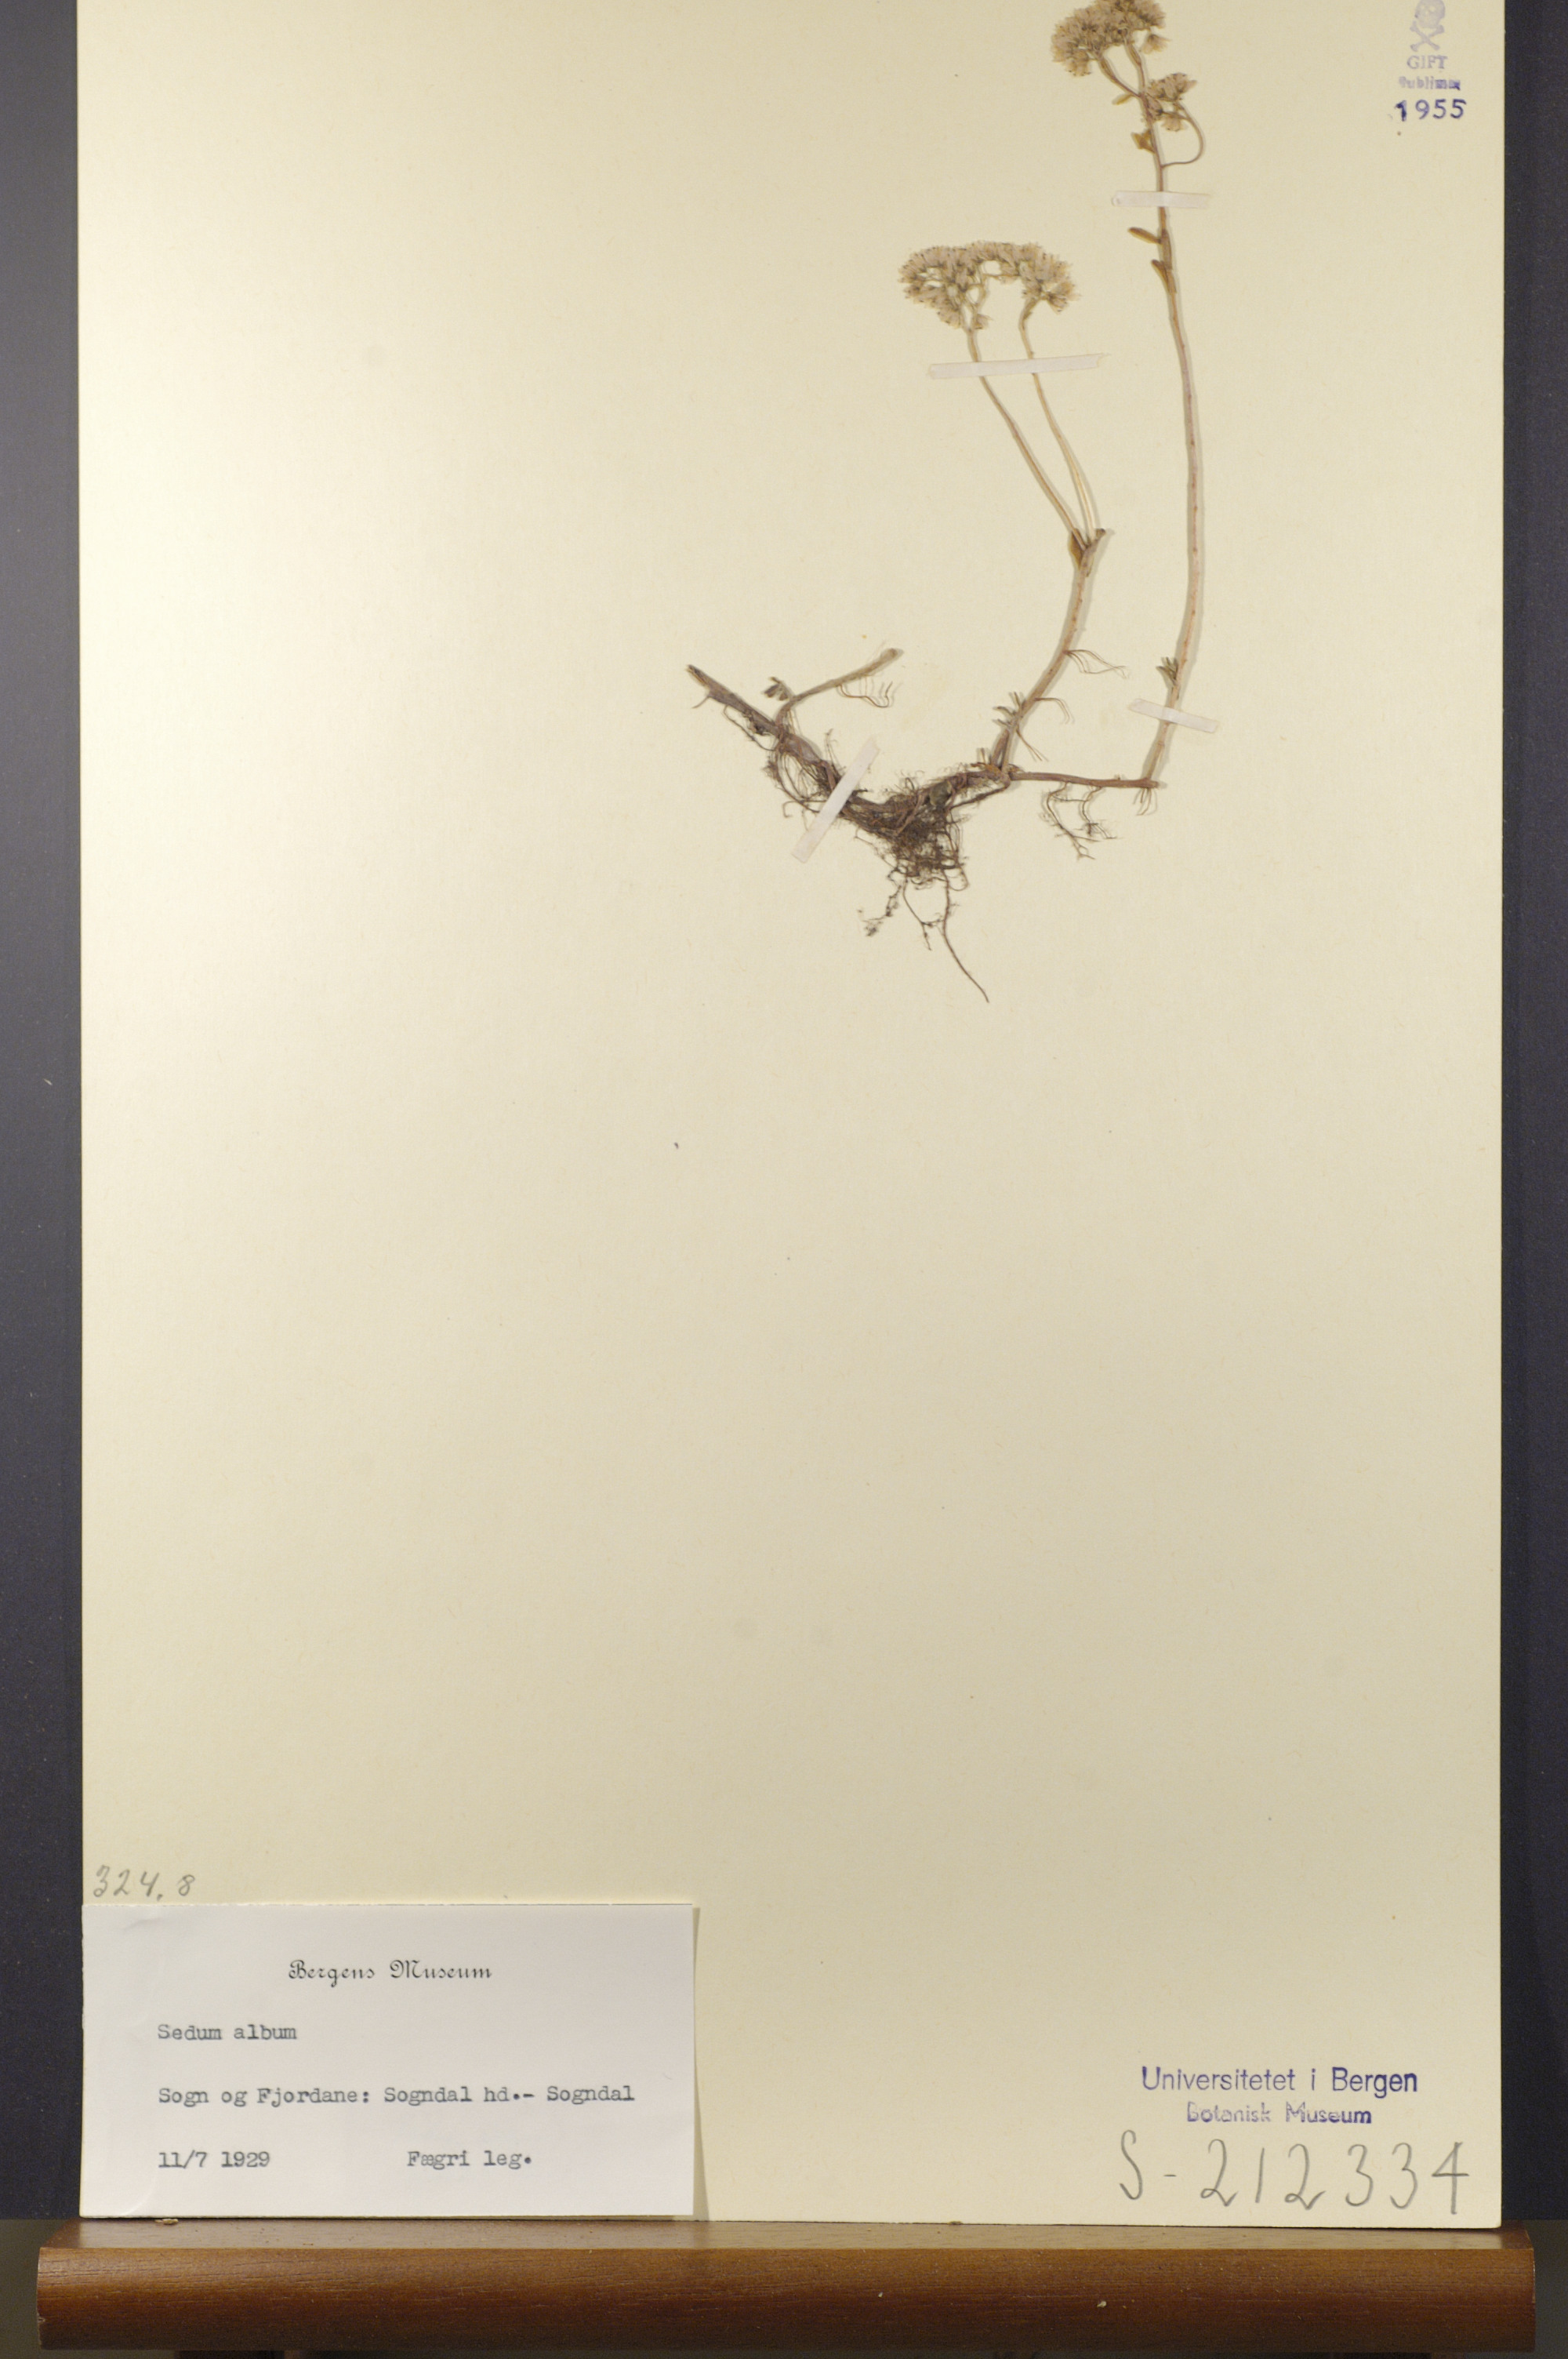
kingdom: Plantae
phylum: Tracheophyta
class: Magnoliopsida
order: Saxifragales
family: Crassulaceae
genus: Sedum
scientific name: Sedum album
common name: White stonecrop
